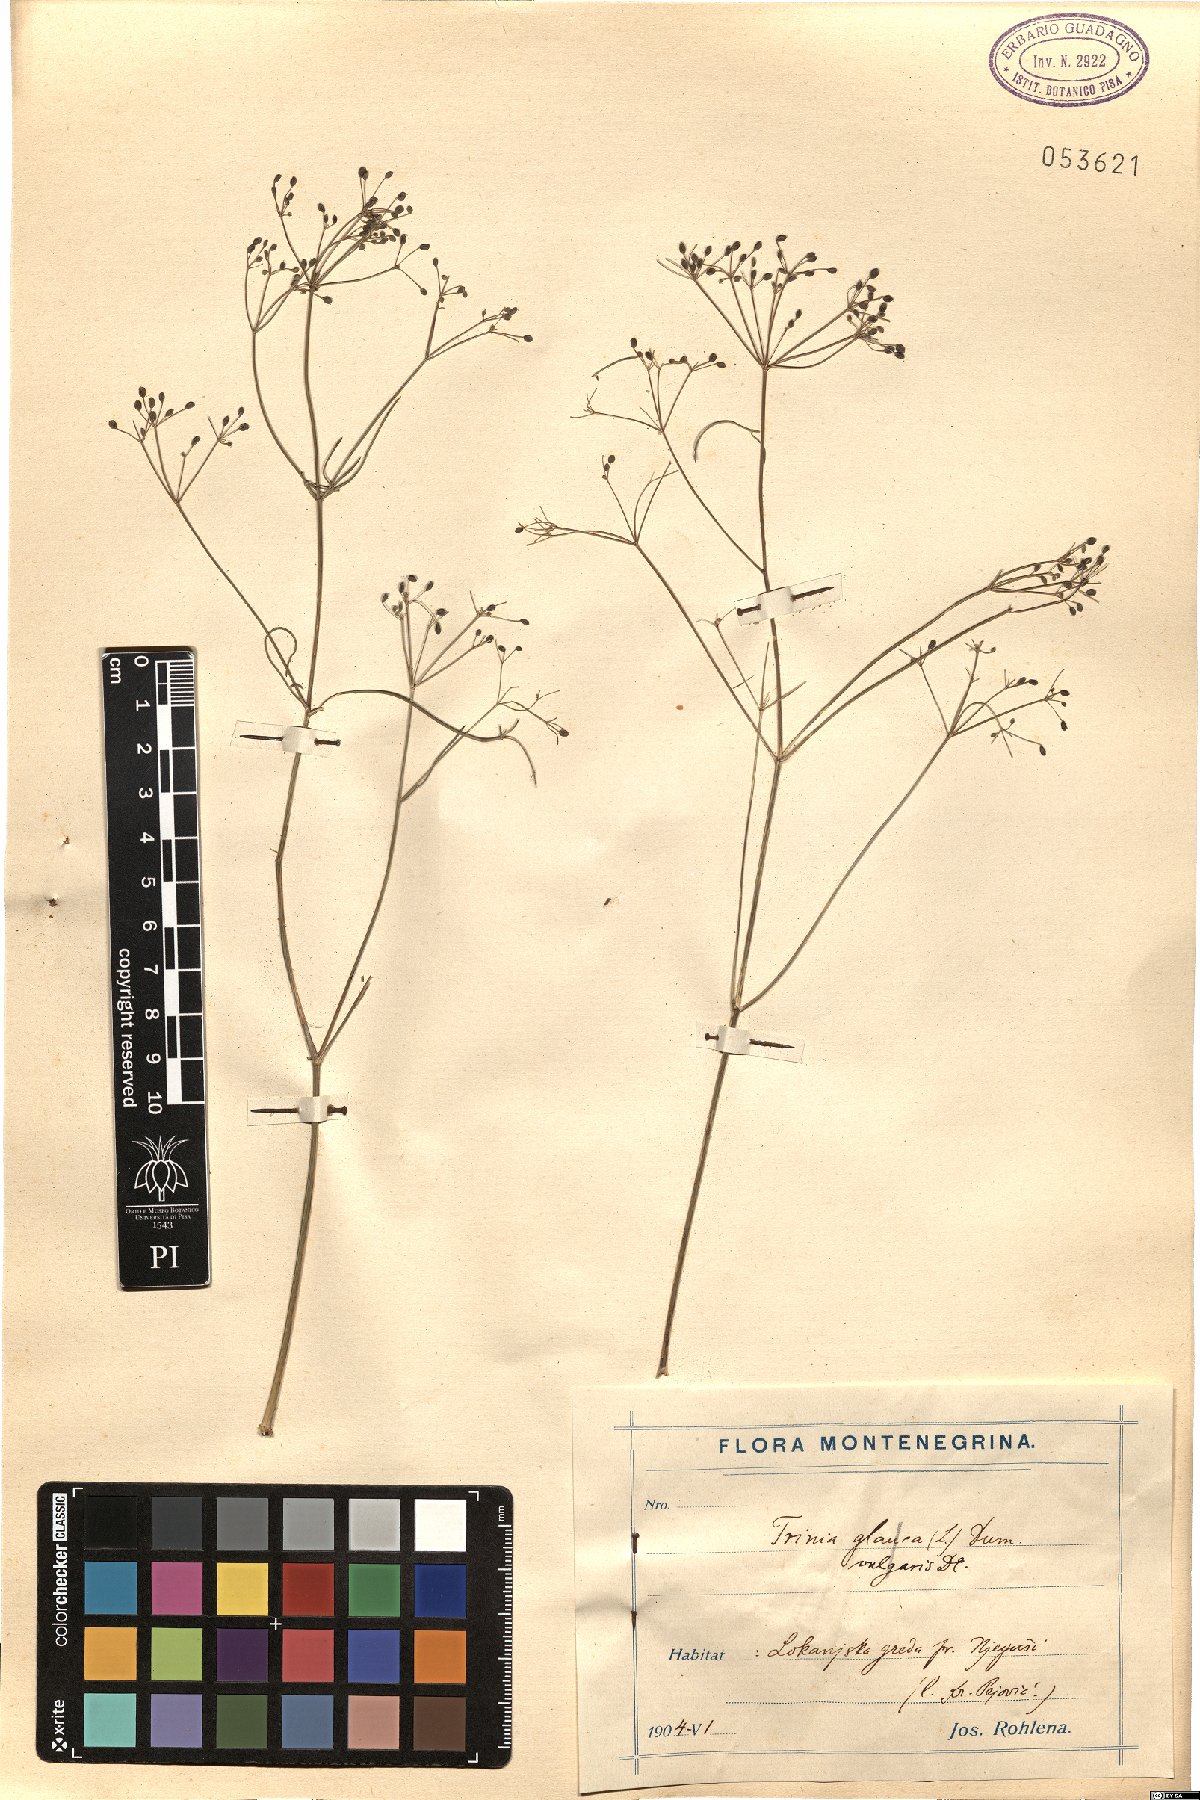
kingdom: Plantae
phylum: Tracheophyta
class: Magnoliopsida
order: Apiales
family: Apiaceae
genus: Trinia
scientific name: Trinia glauca
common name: Honewort
